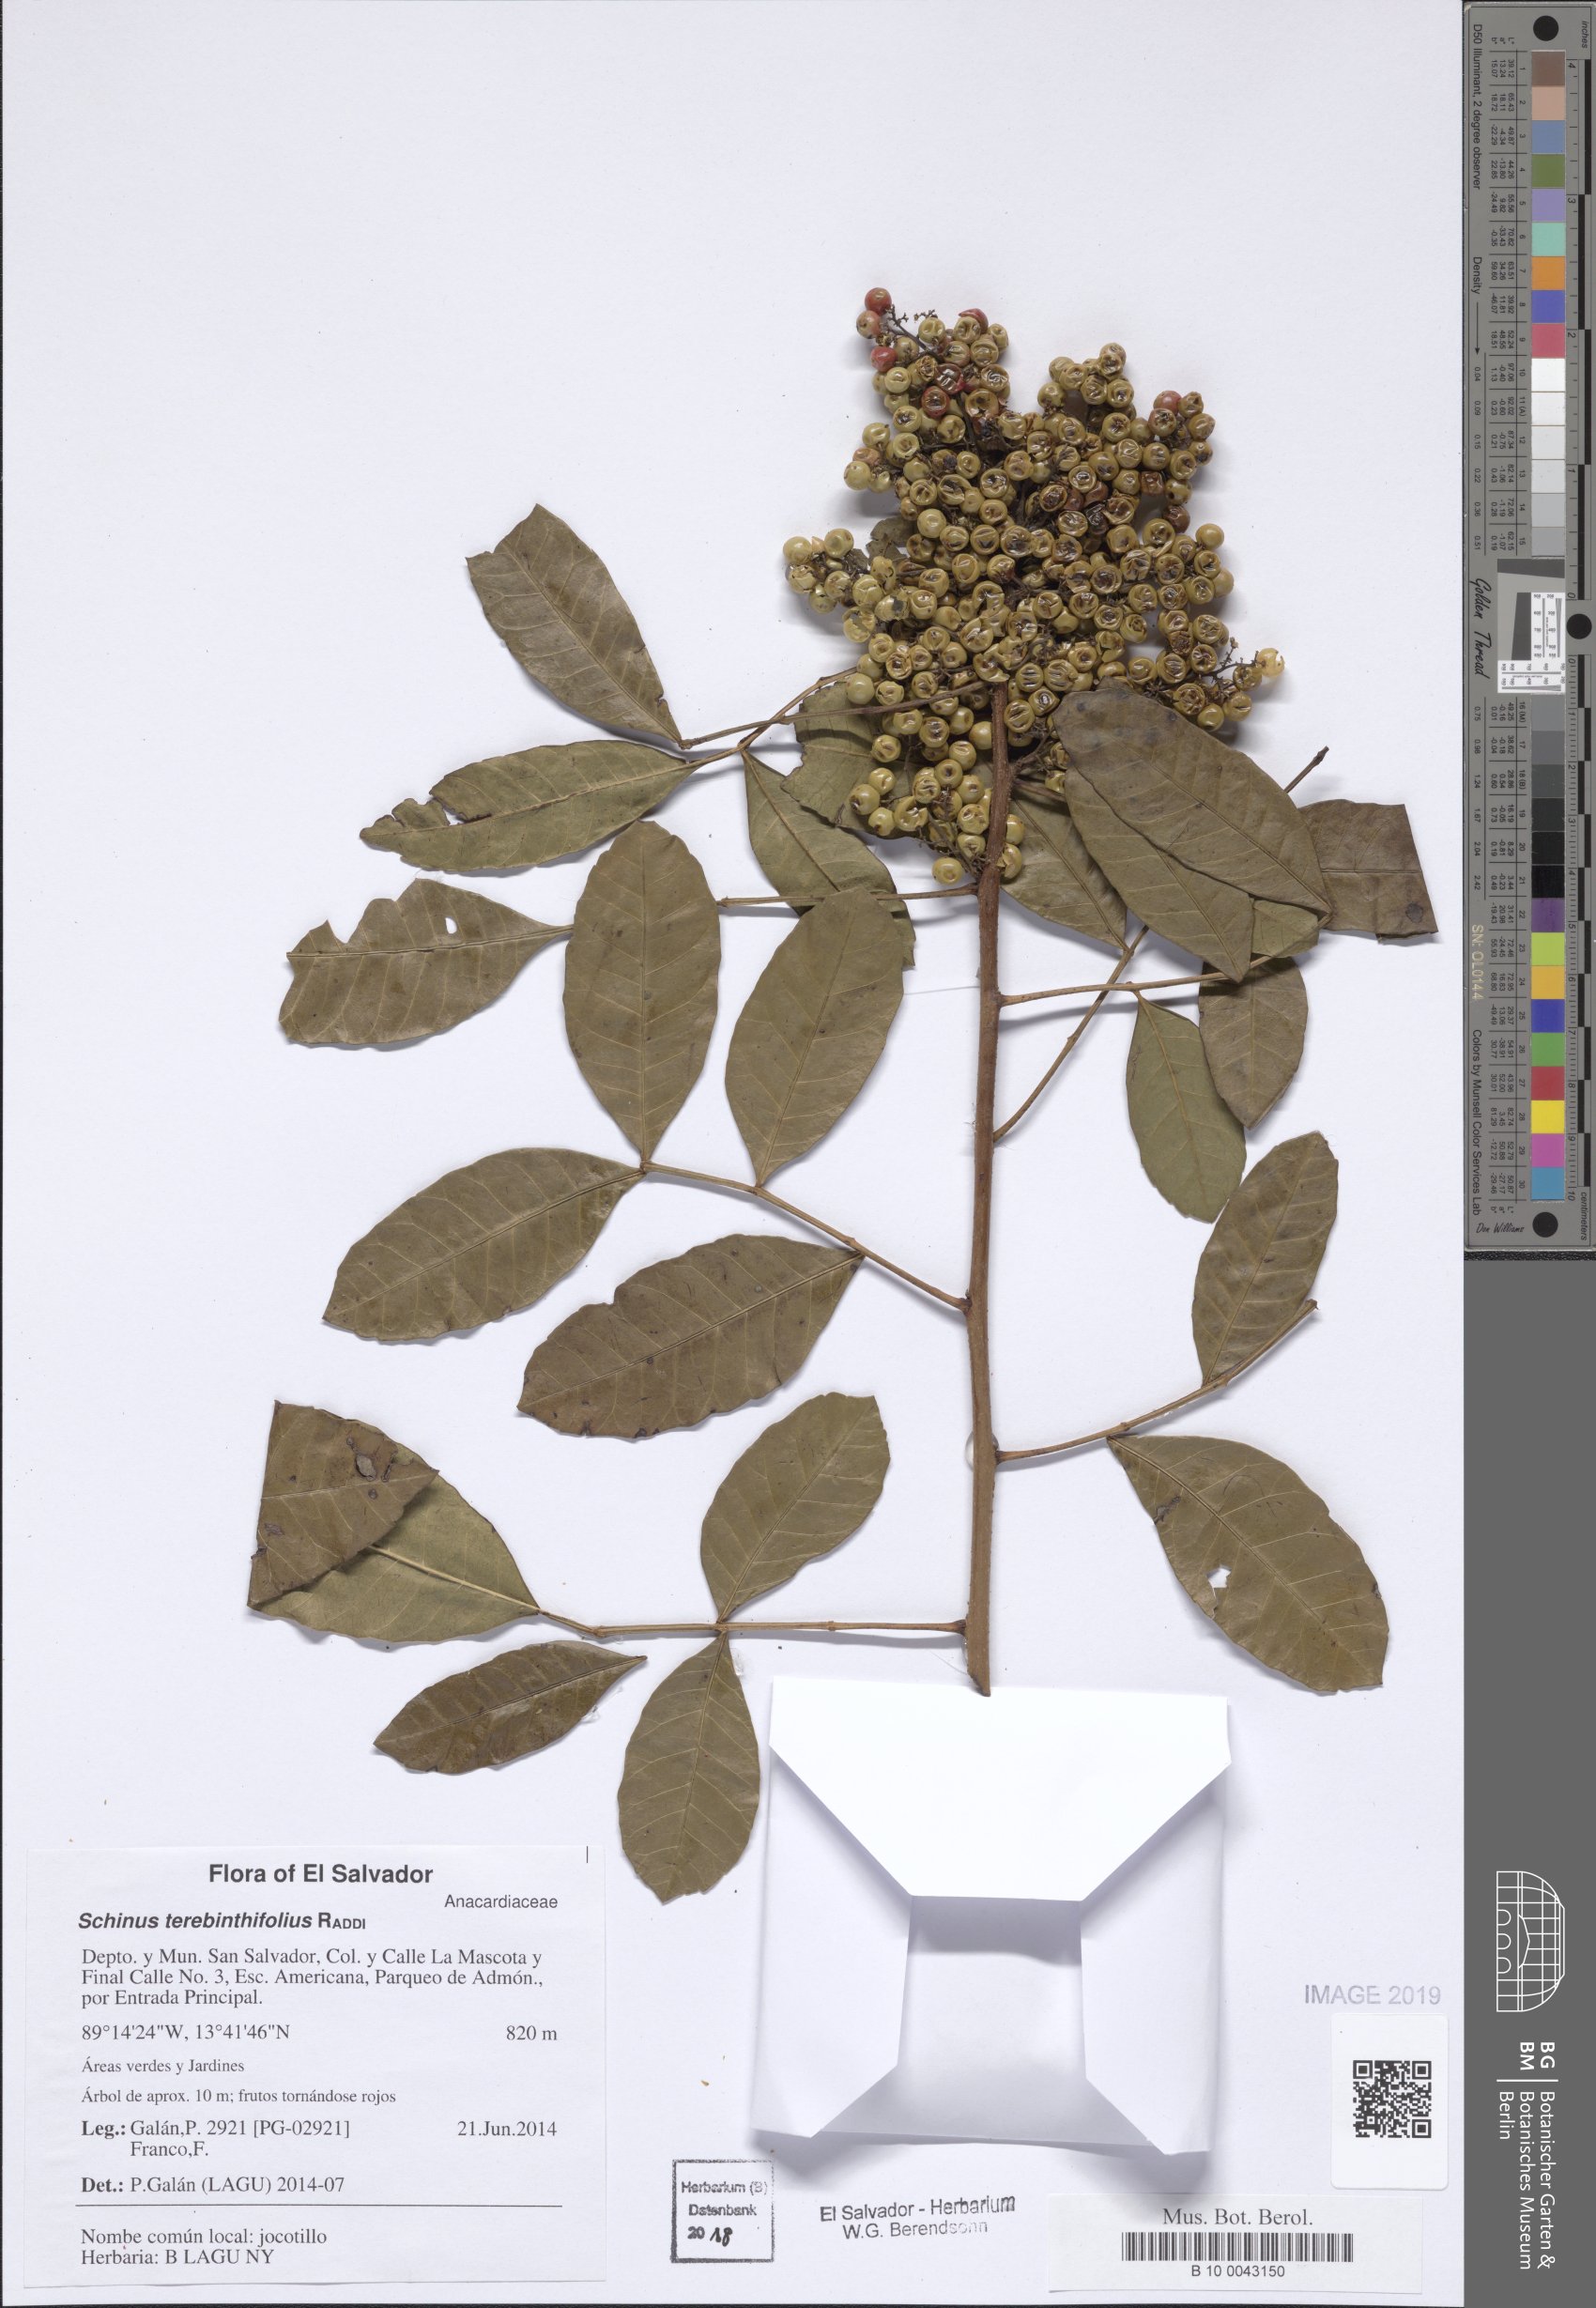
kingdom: Plantae
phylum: Tracheophyta
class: Magnoliopsida
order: Sapindales
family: Anacardiaceae
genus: Schinus
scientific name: Schinus terebinthifolia
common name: Brazilian peppertree
